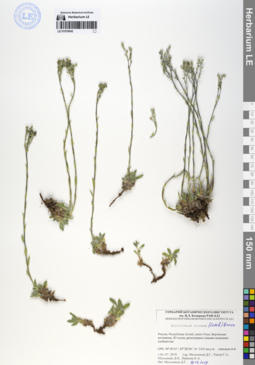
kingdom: Plantae
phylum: Tracheophyta
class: Magnoliopsida
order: Boraginales
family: Boraginaceae
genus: Eritrichium
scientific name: Eritrichium villosum
